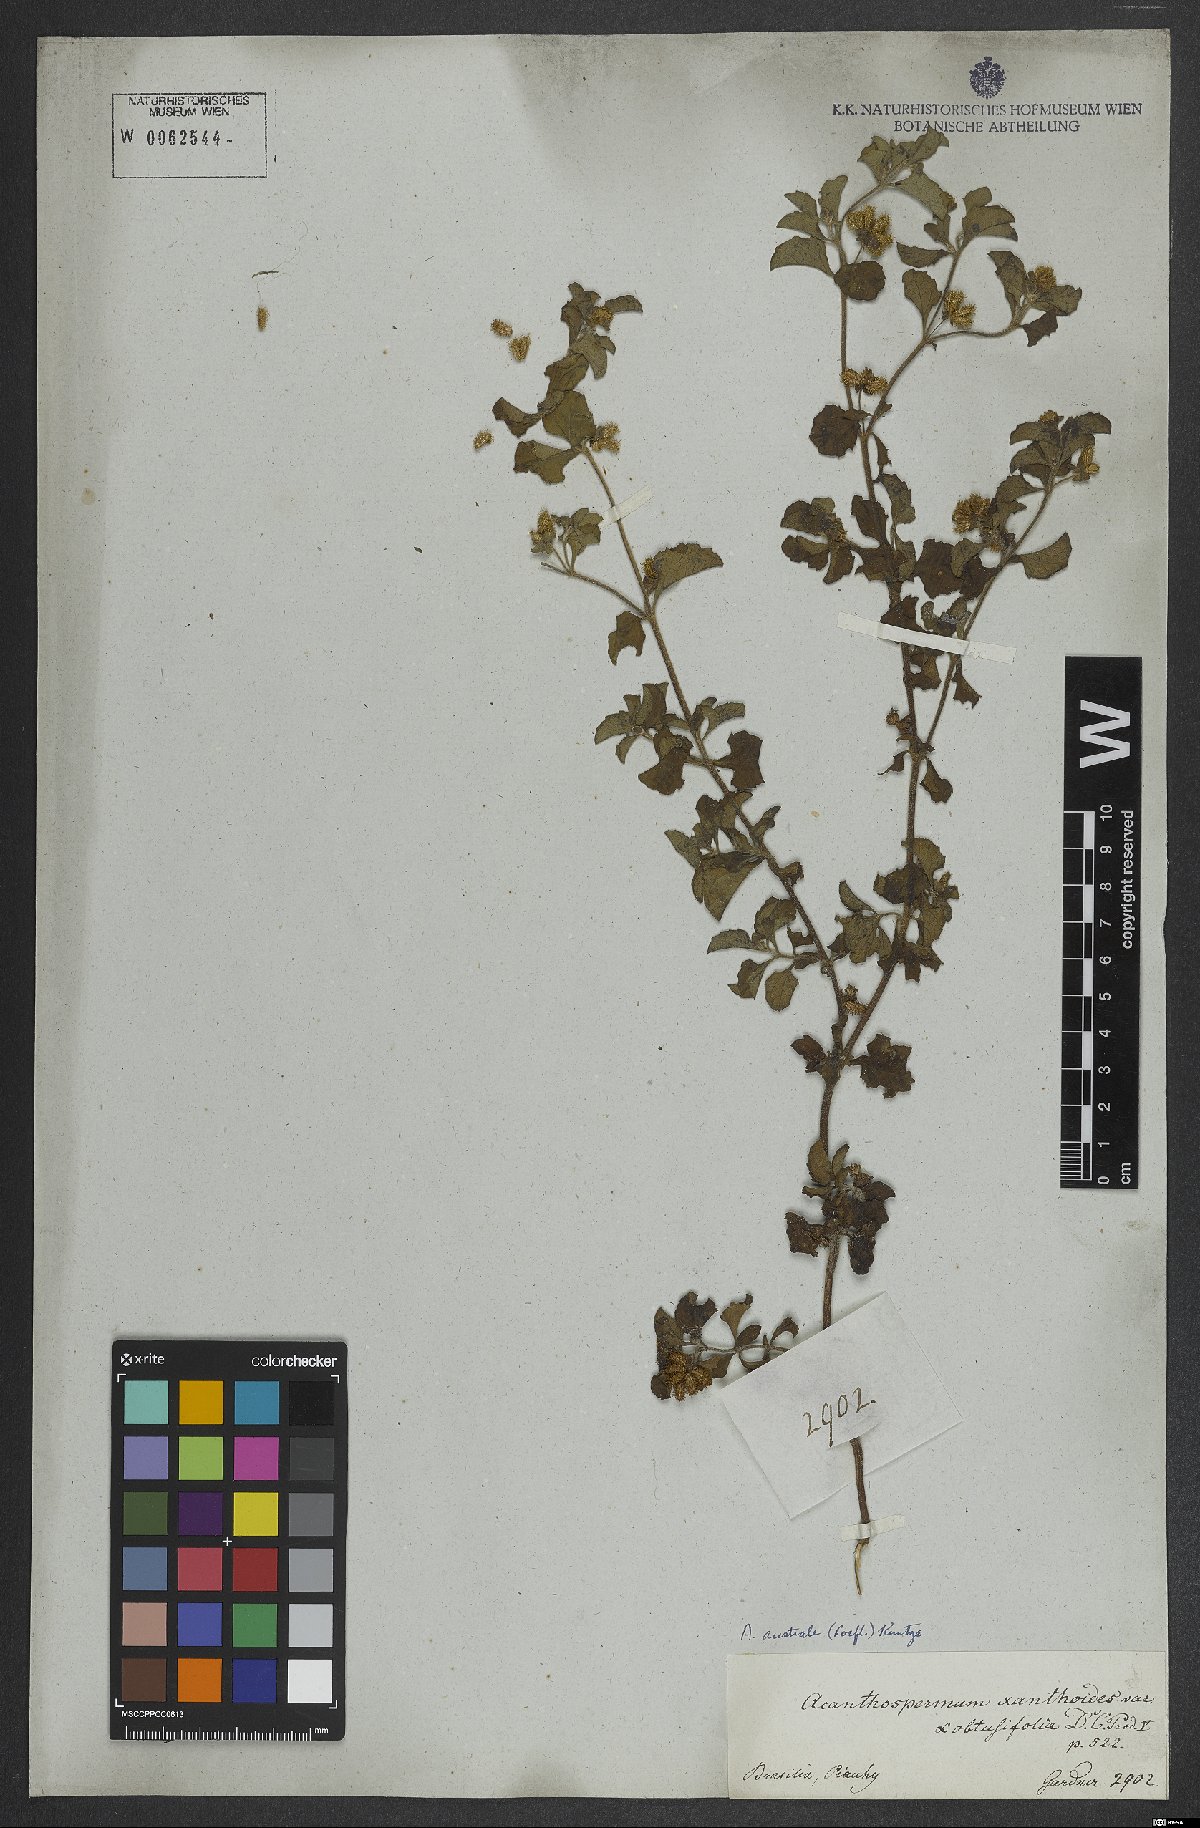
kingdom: Plantae
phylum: Tracheophyta
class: Magnoliopsida
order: Asterales
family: Asteraceae
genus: Acanthospermum
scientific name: Acanthospermum australe
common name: Paraguayan starbur
